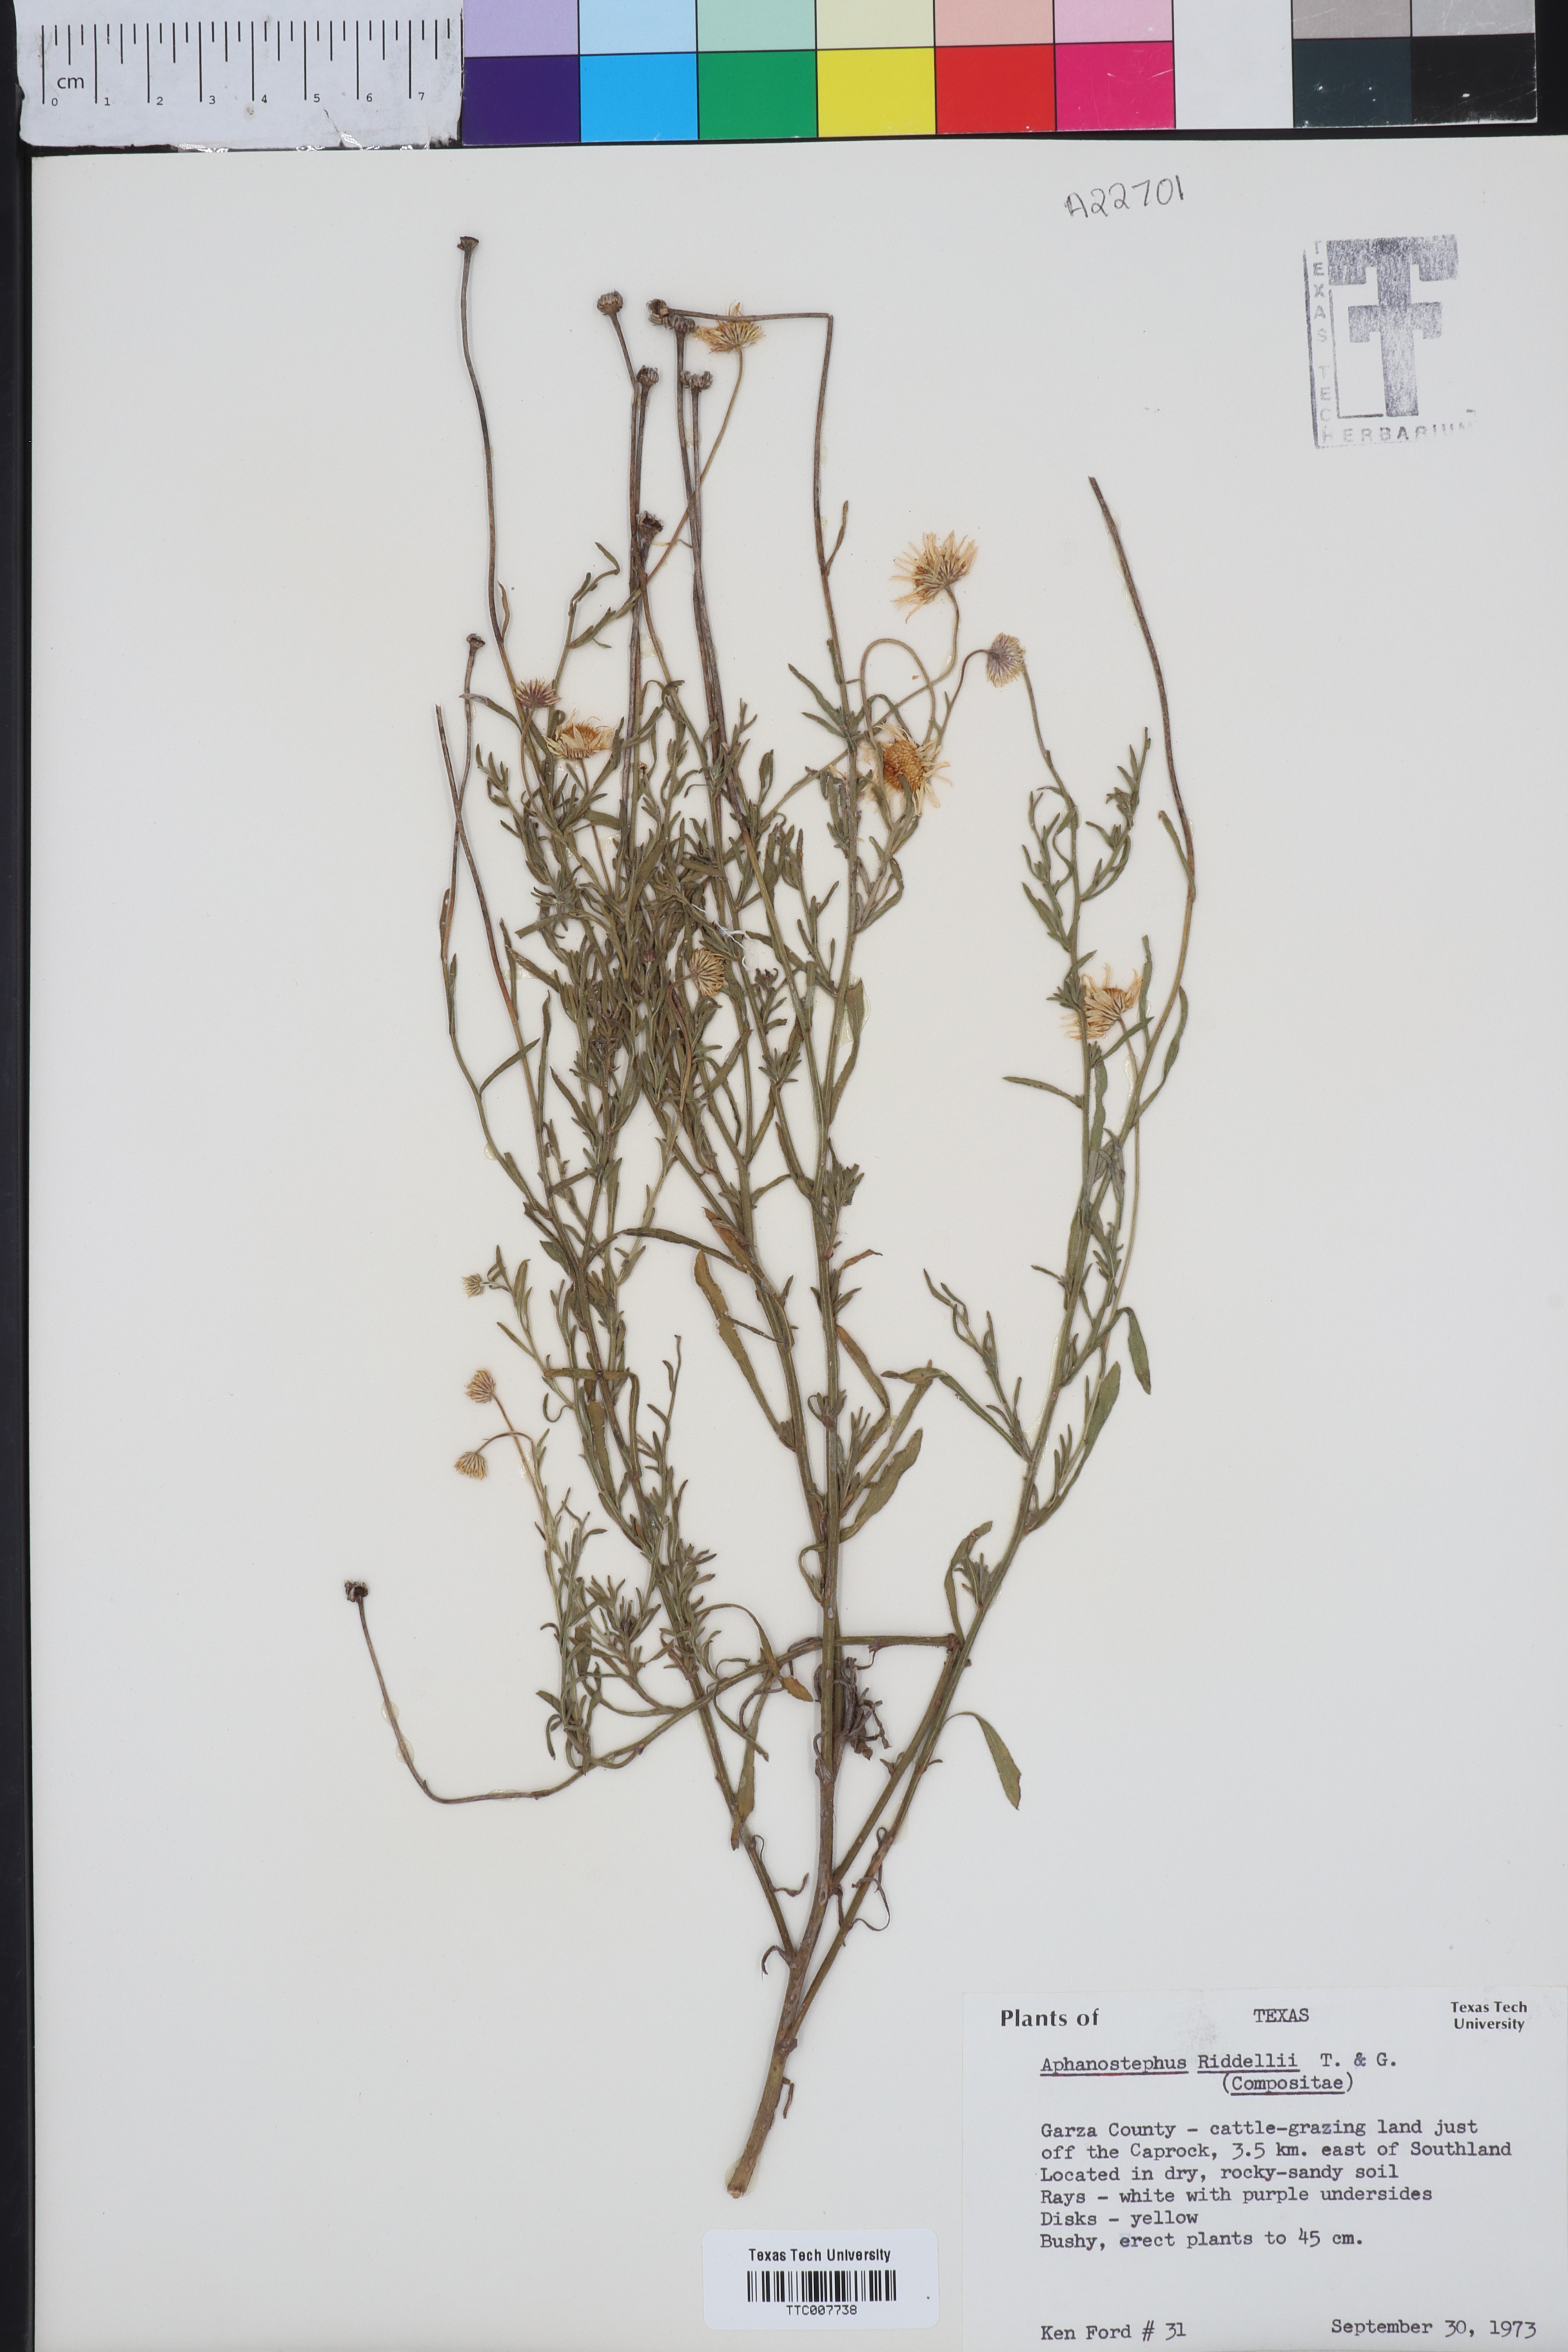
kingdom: Plantae
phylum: Tracheophyta
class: Magnoliopsida
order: Asterales
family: Asteraceae
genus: Aphanostephus
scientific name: Aphanostephus riddellii
